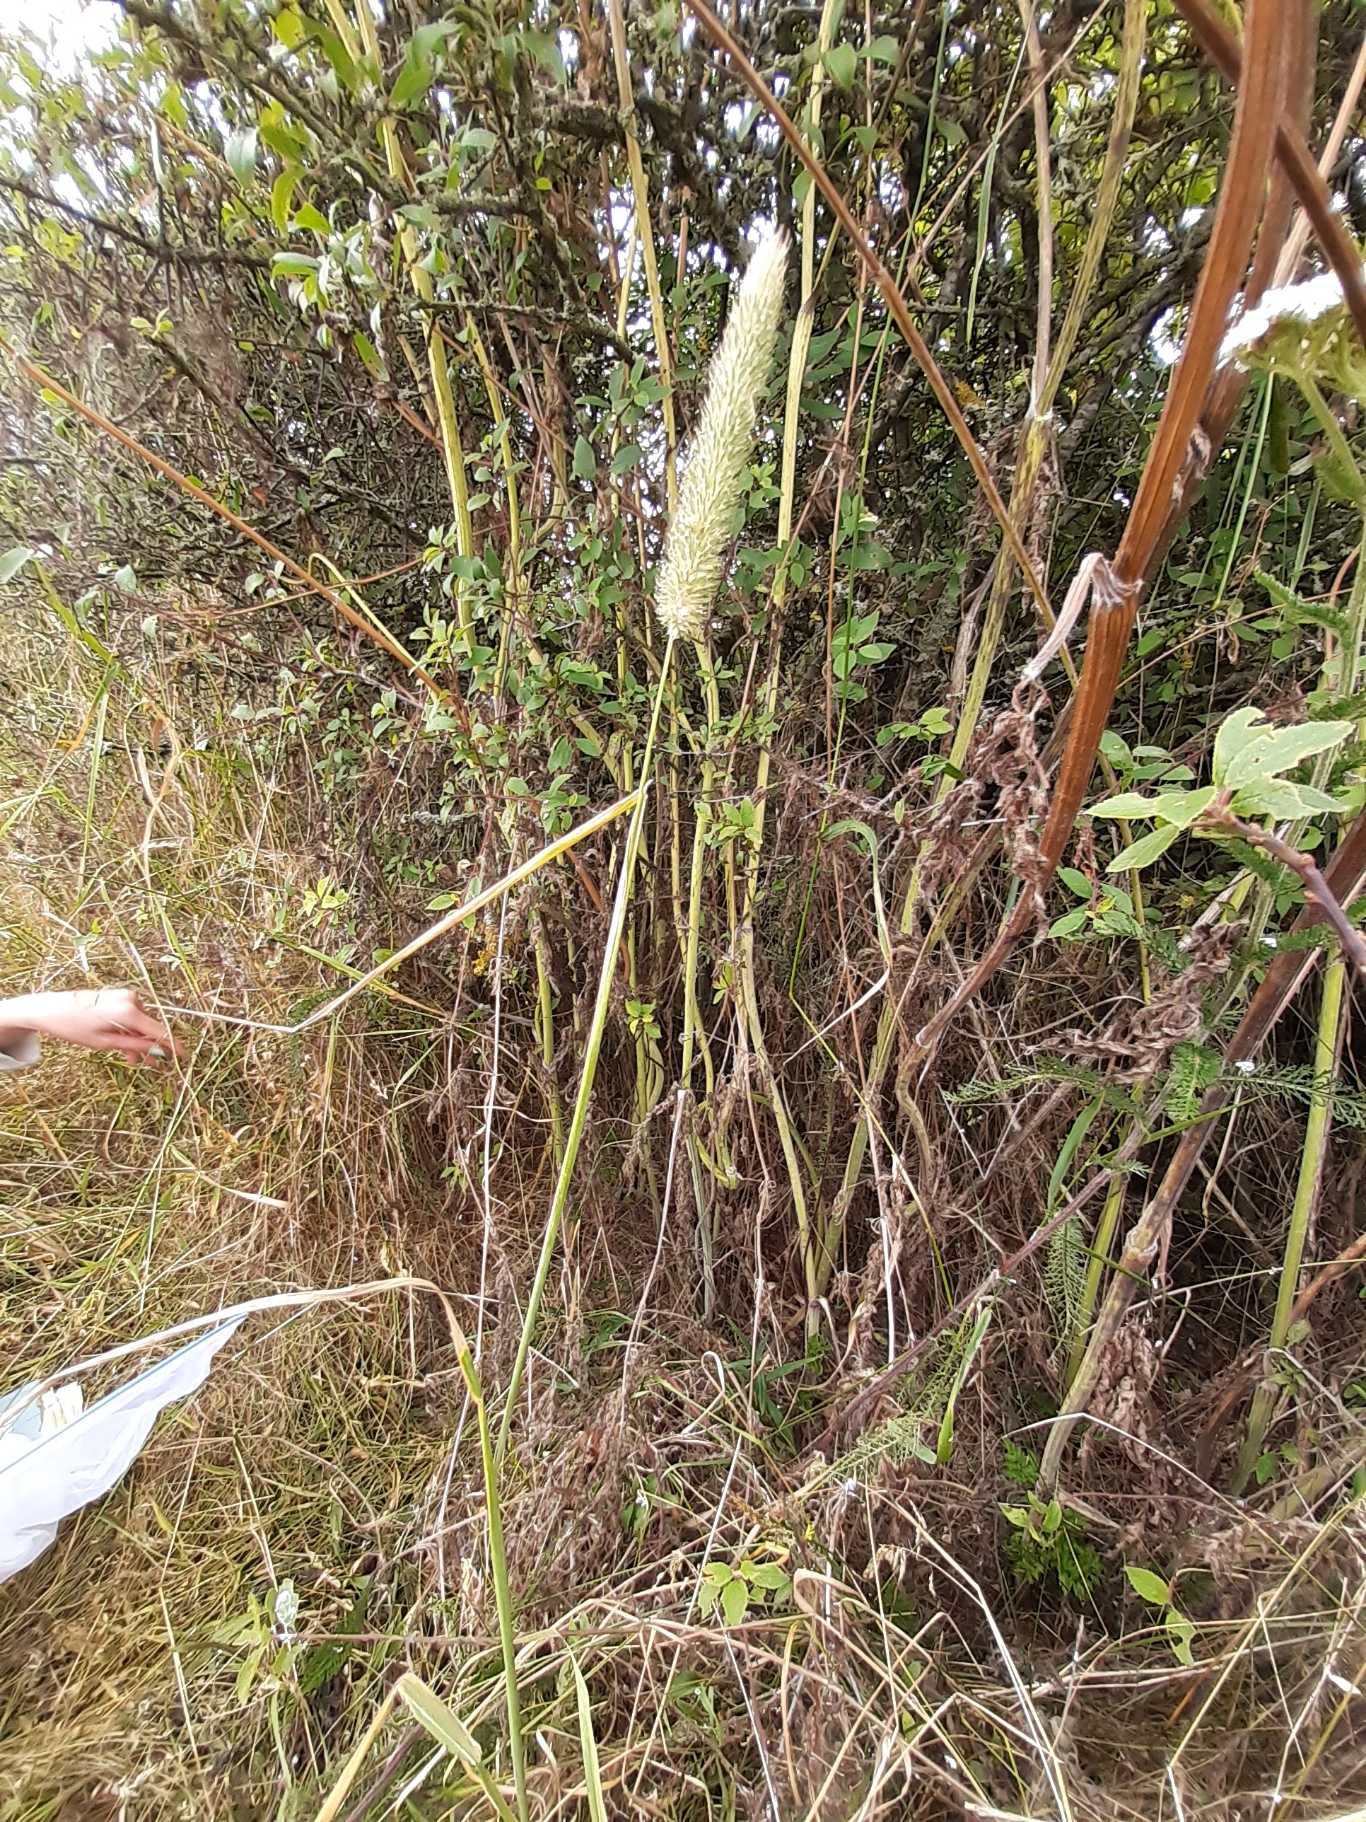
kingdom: Plantae
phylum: Tracheophyta
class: Liliopsida
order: Poales
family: Poaceae
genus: Phleum
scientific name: Phleum pratense
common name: Eng-rottehale
